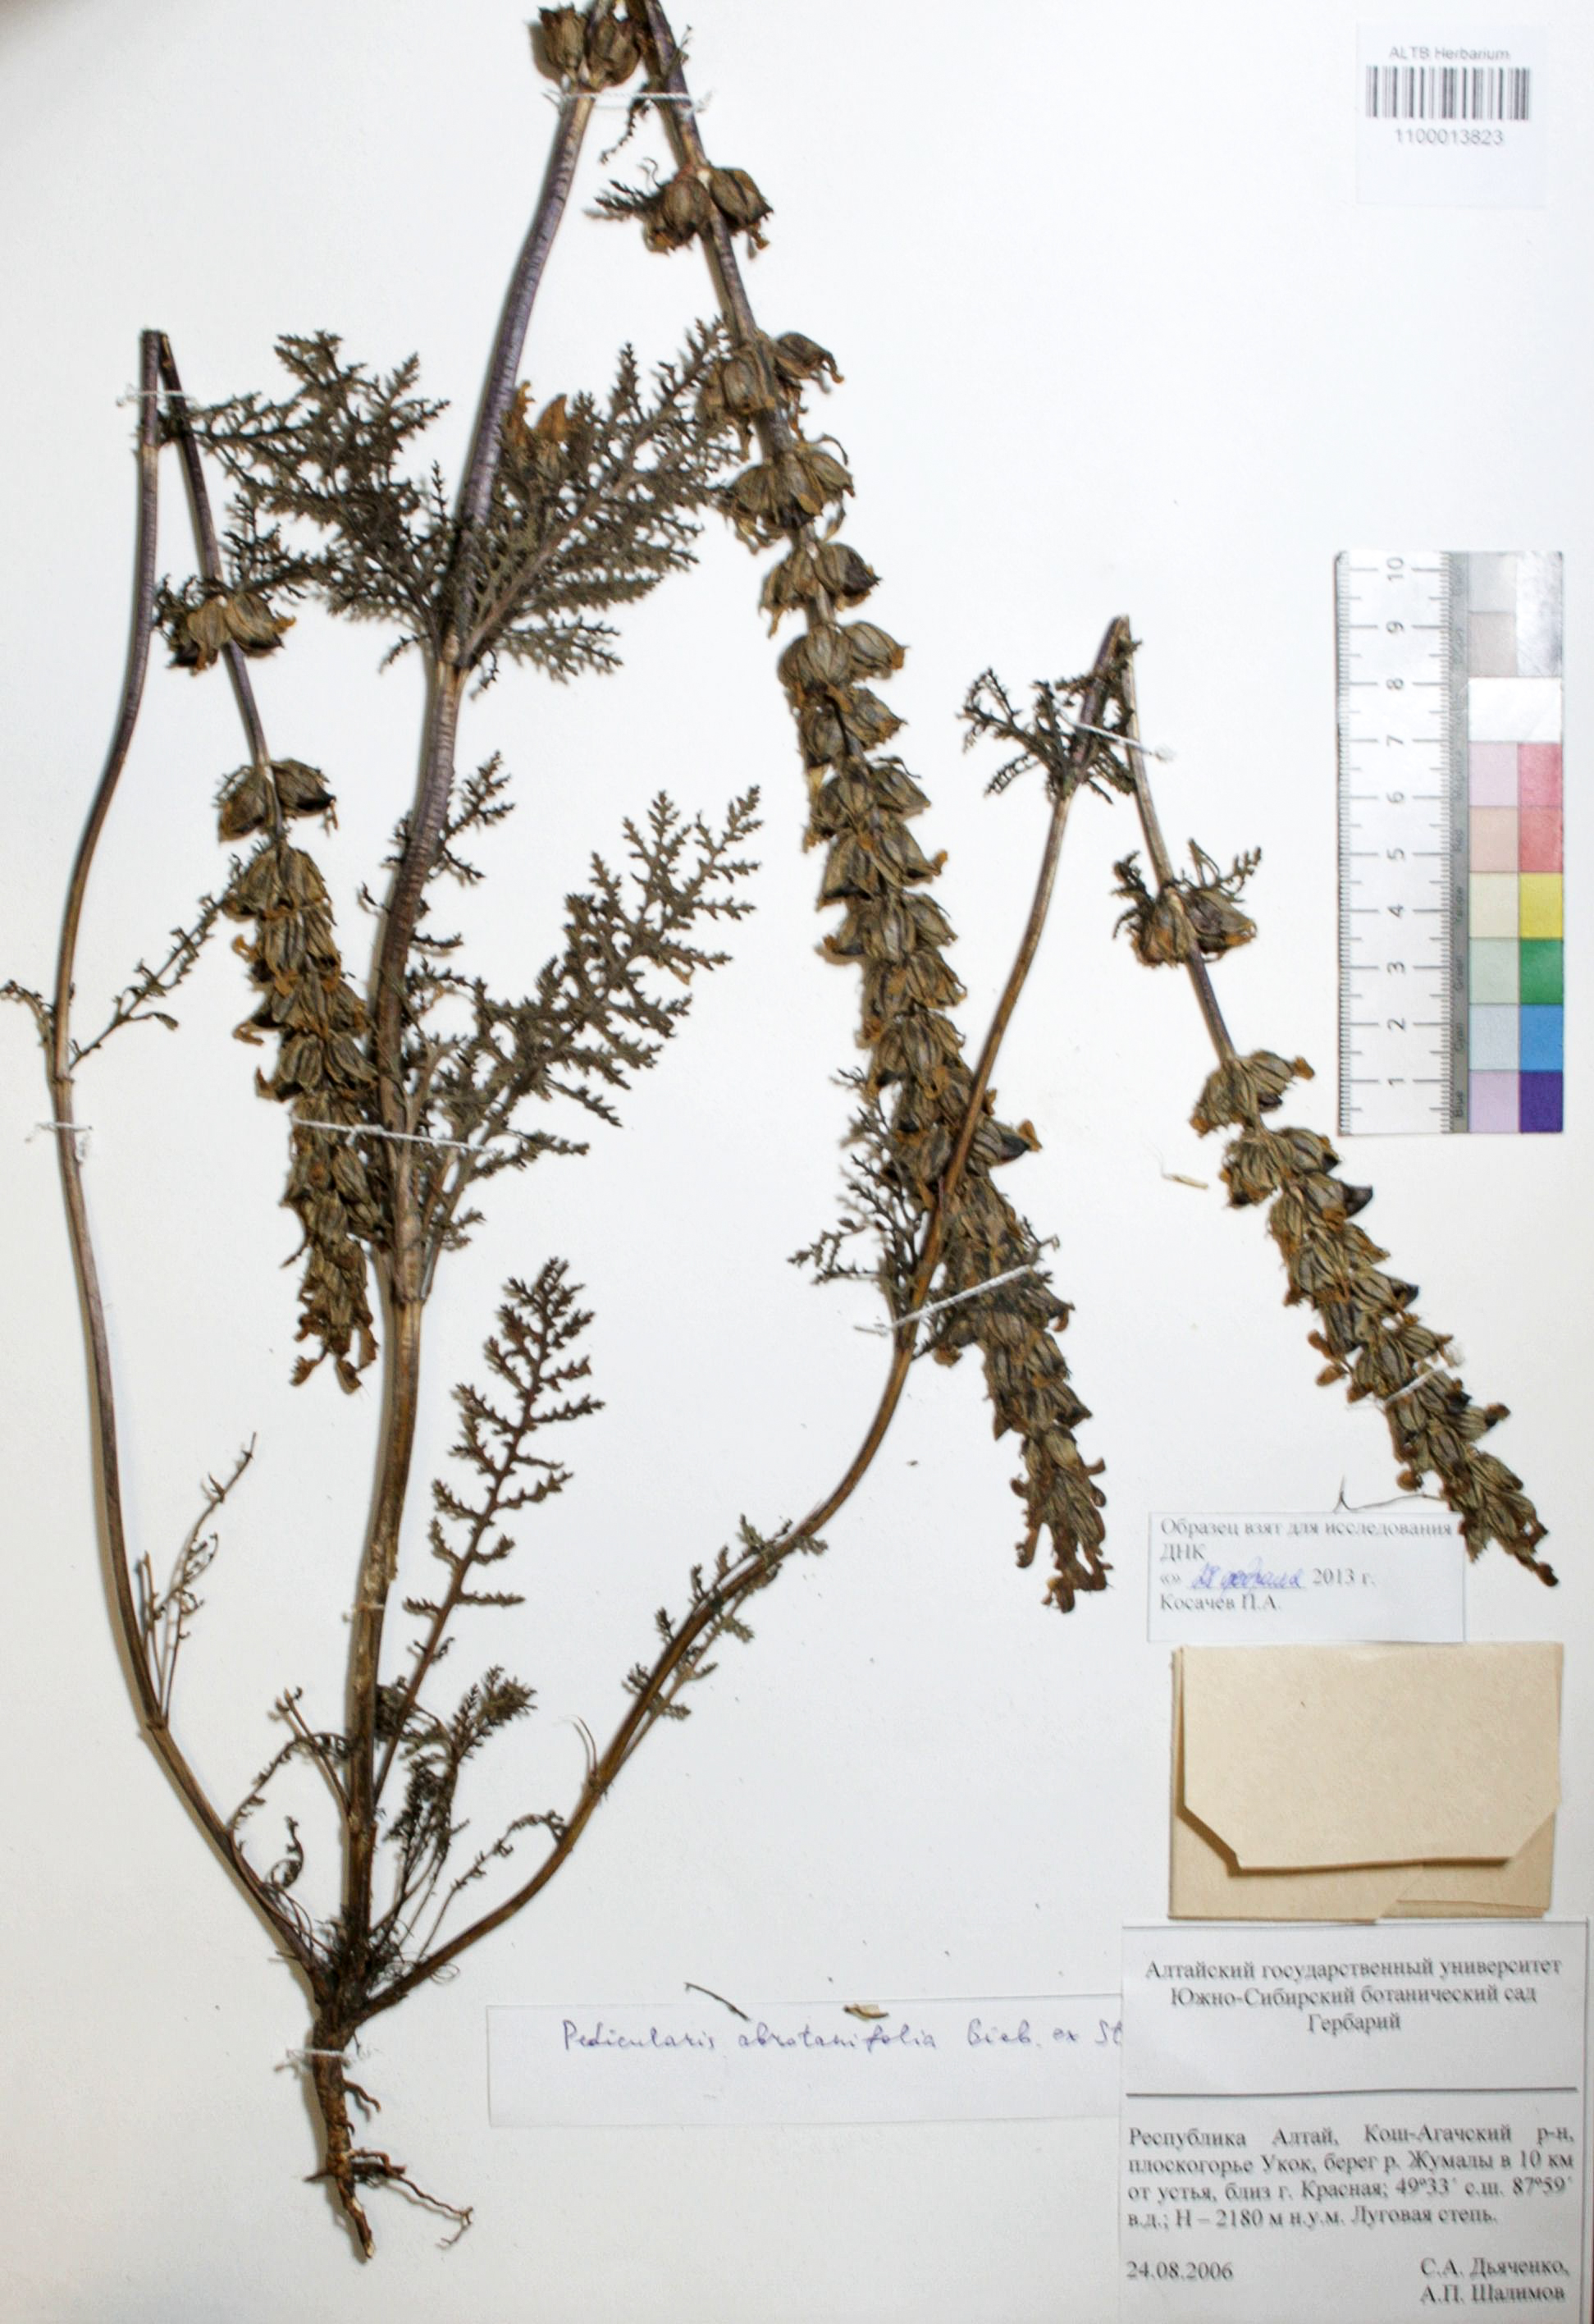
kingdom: Plantae
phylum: Tracheophyta
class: Magnoliopsida
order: Lamiales
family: Orobanchaceae
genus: Pedicularis
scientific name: Pedicularis abrotanifolia
